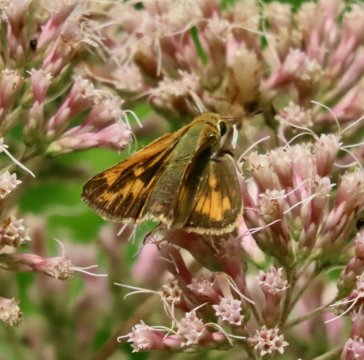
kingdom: Animalia
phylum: Arthropoda
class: Insecta
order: Lepidoptera
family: Hesperiidae
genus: Hylephila
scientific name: Hylephila phyleus
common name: Fiery Skipper
